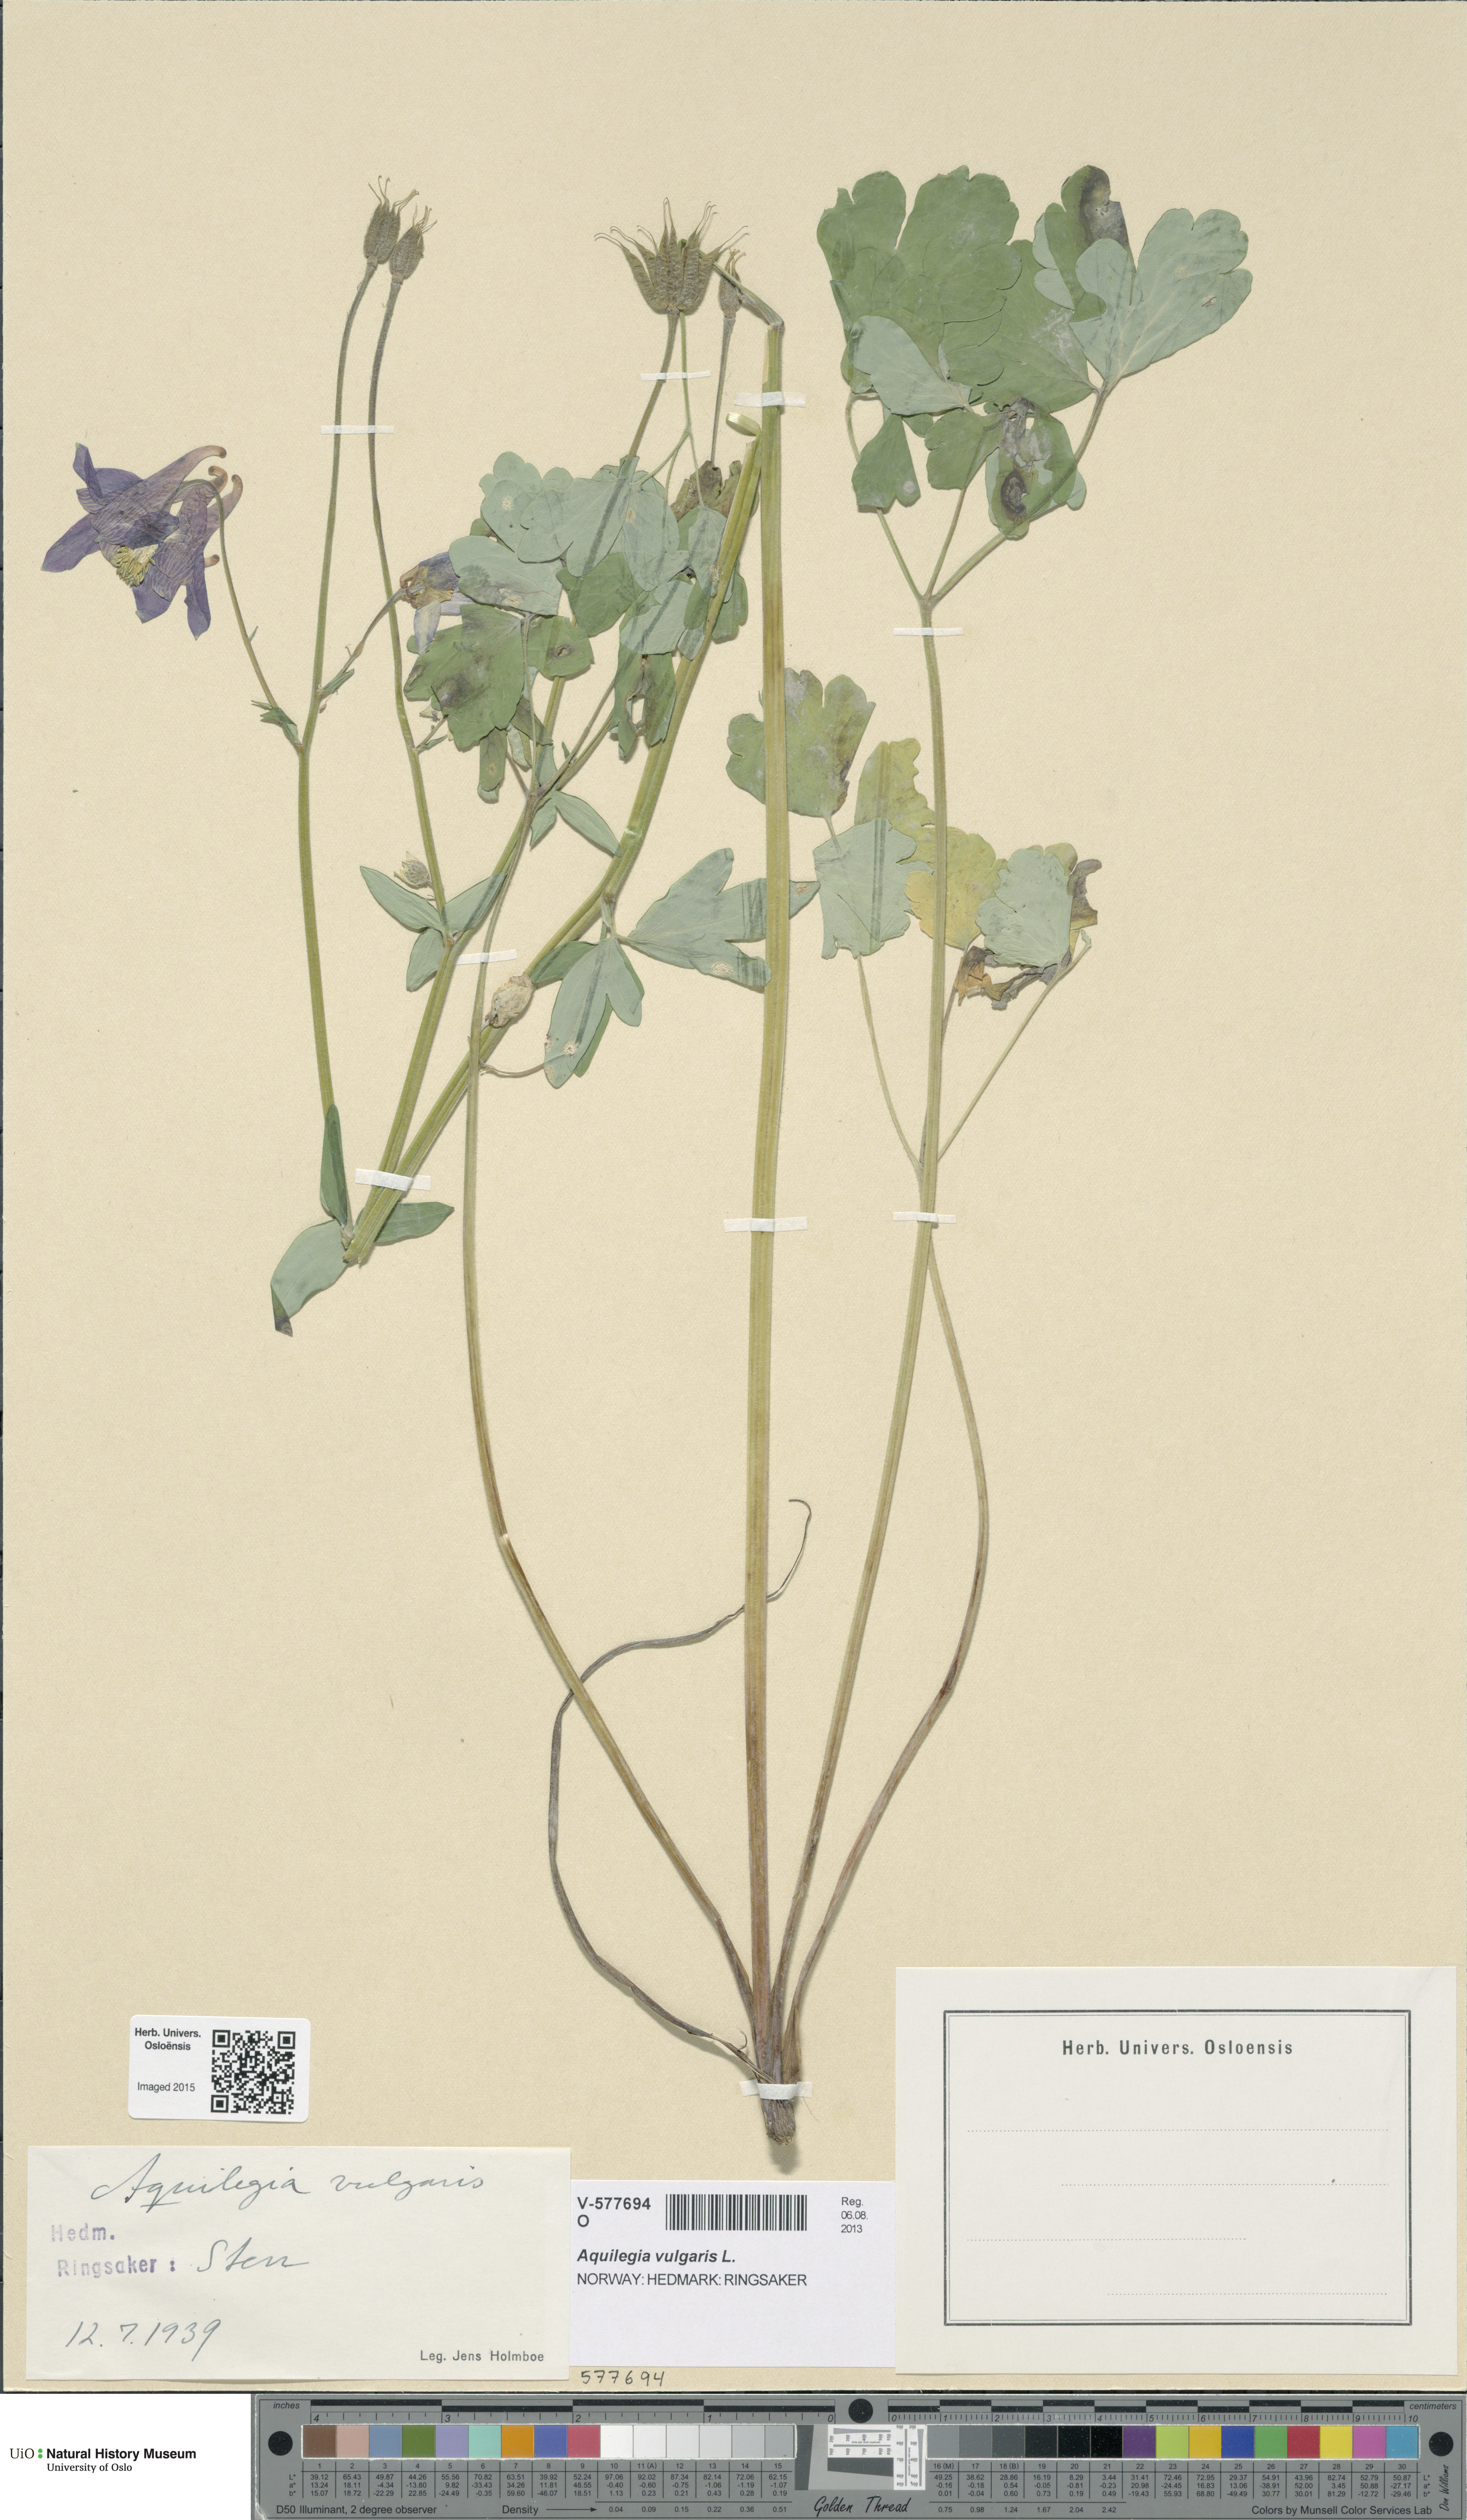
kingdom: Plantae
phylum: Tracheophyta
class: Magnoliopsida
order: Ranunculales
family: Ranunculaceae
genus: Aquilegia
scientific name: Aquilegia vulgaris
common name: Columbine
